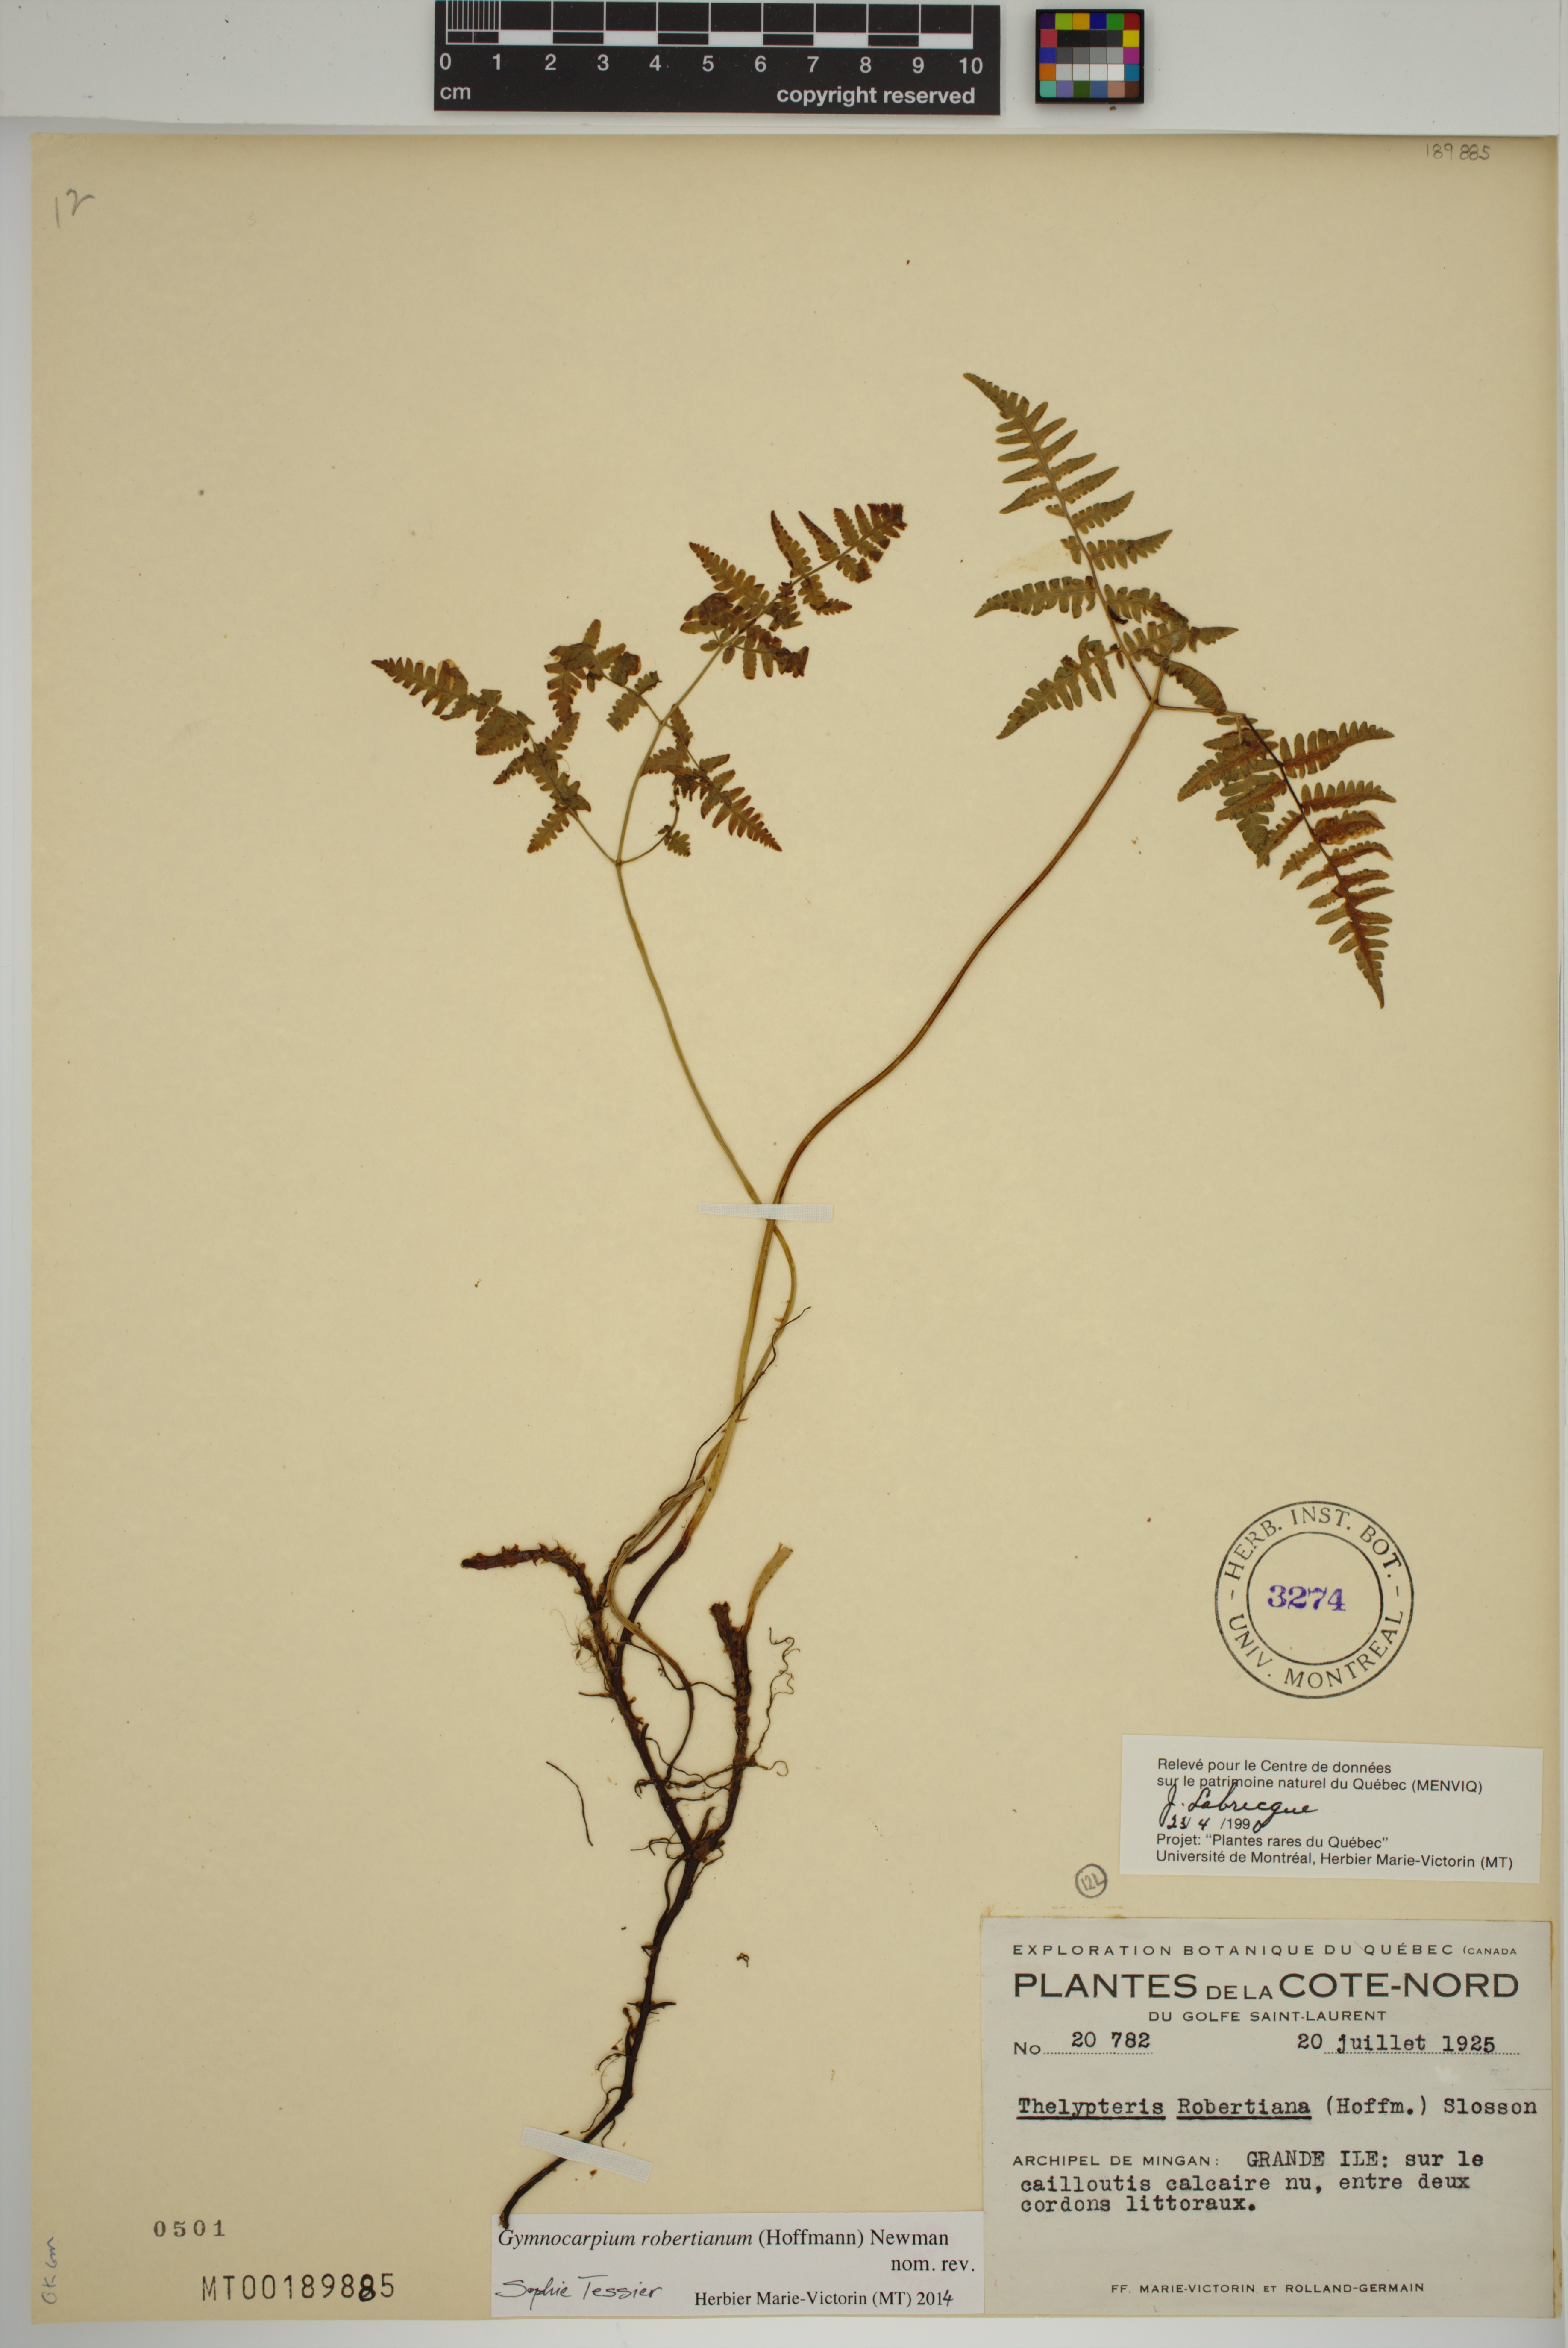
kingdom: Plantae
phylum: Tracheophyta
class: Polypodiopsida
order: Polypodiales
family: Cystopteridaceae
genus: Gymnocarpium
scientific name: Gymnocarpium robertianum
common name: Limestone fern
